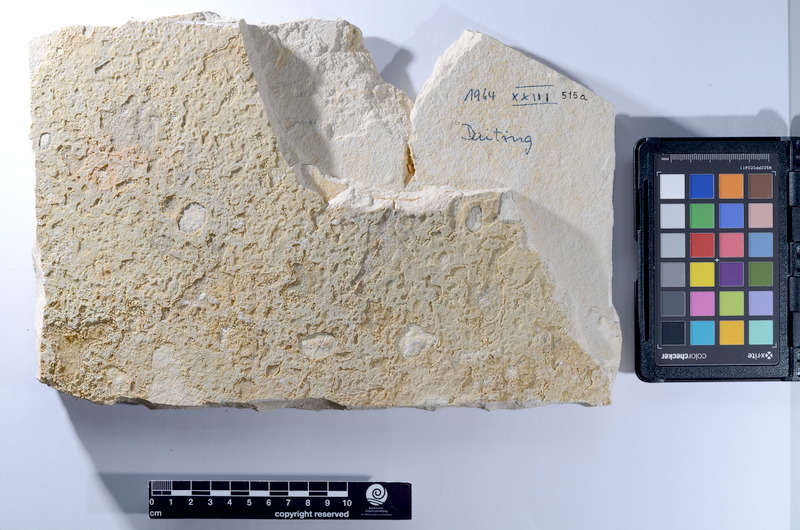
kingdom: Animalia
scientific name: Animalia
